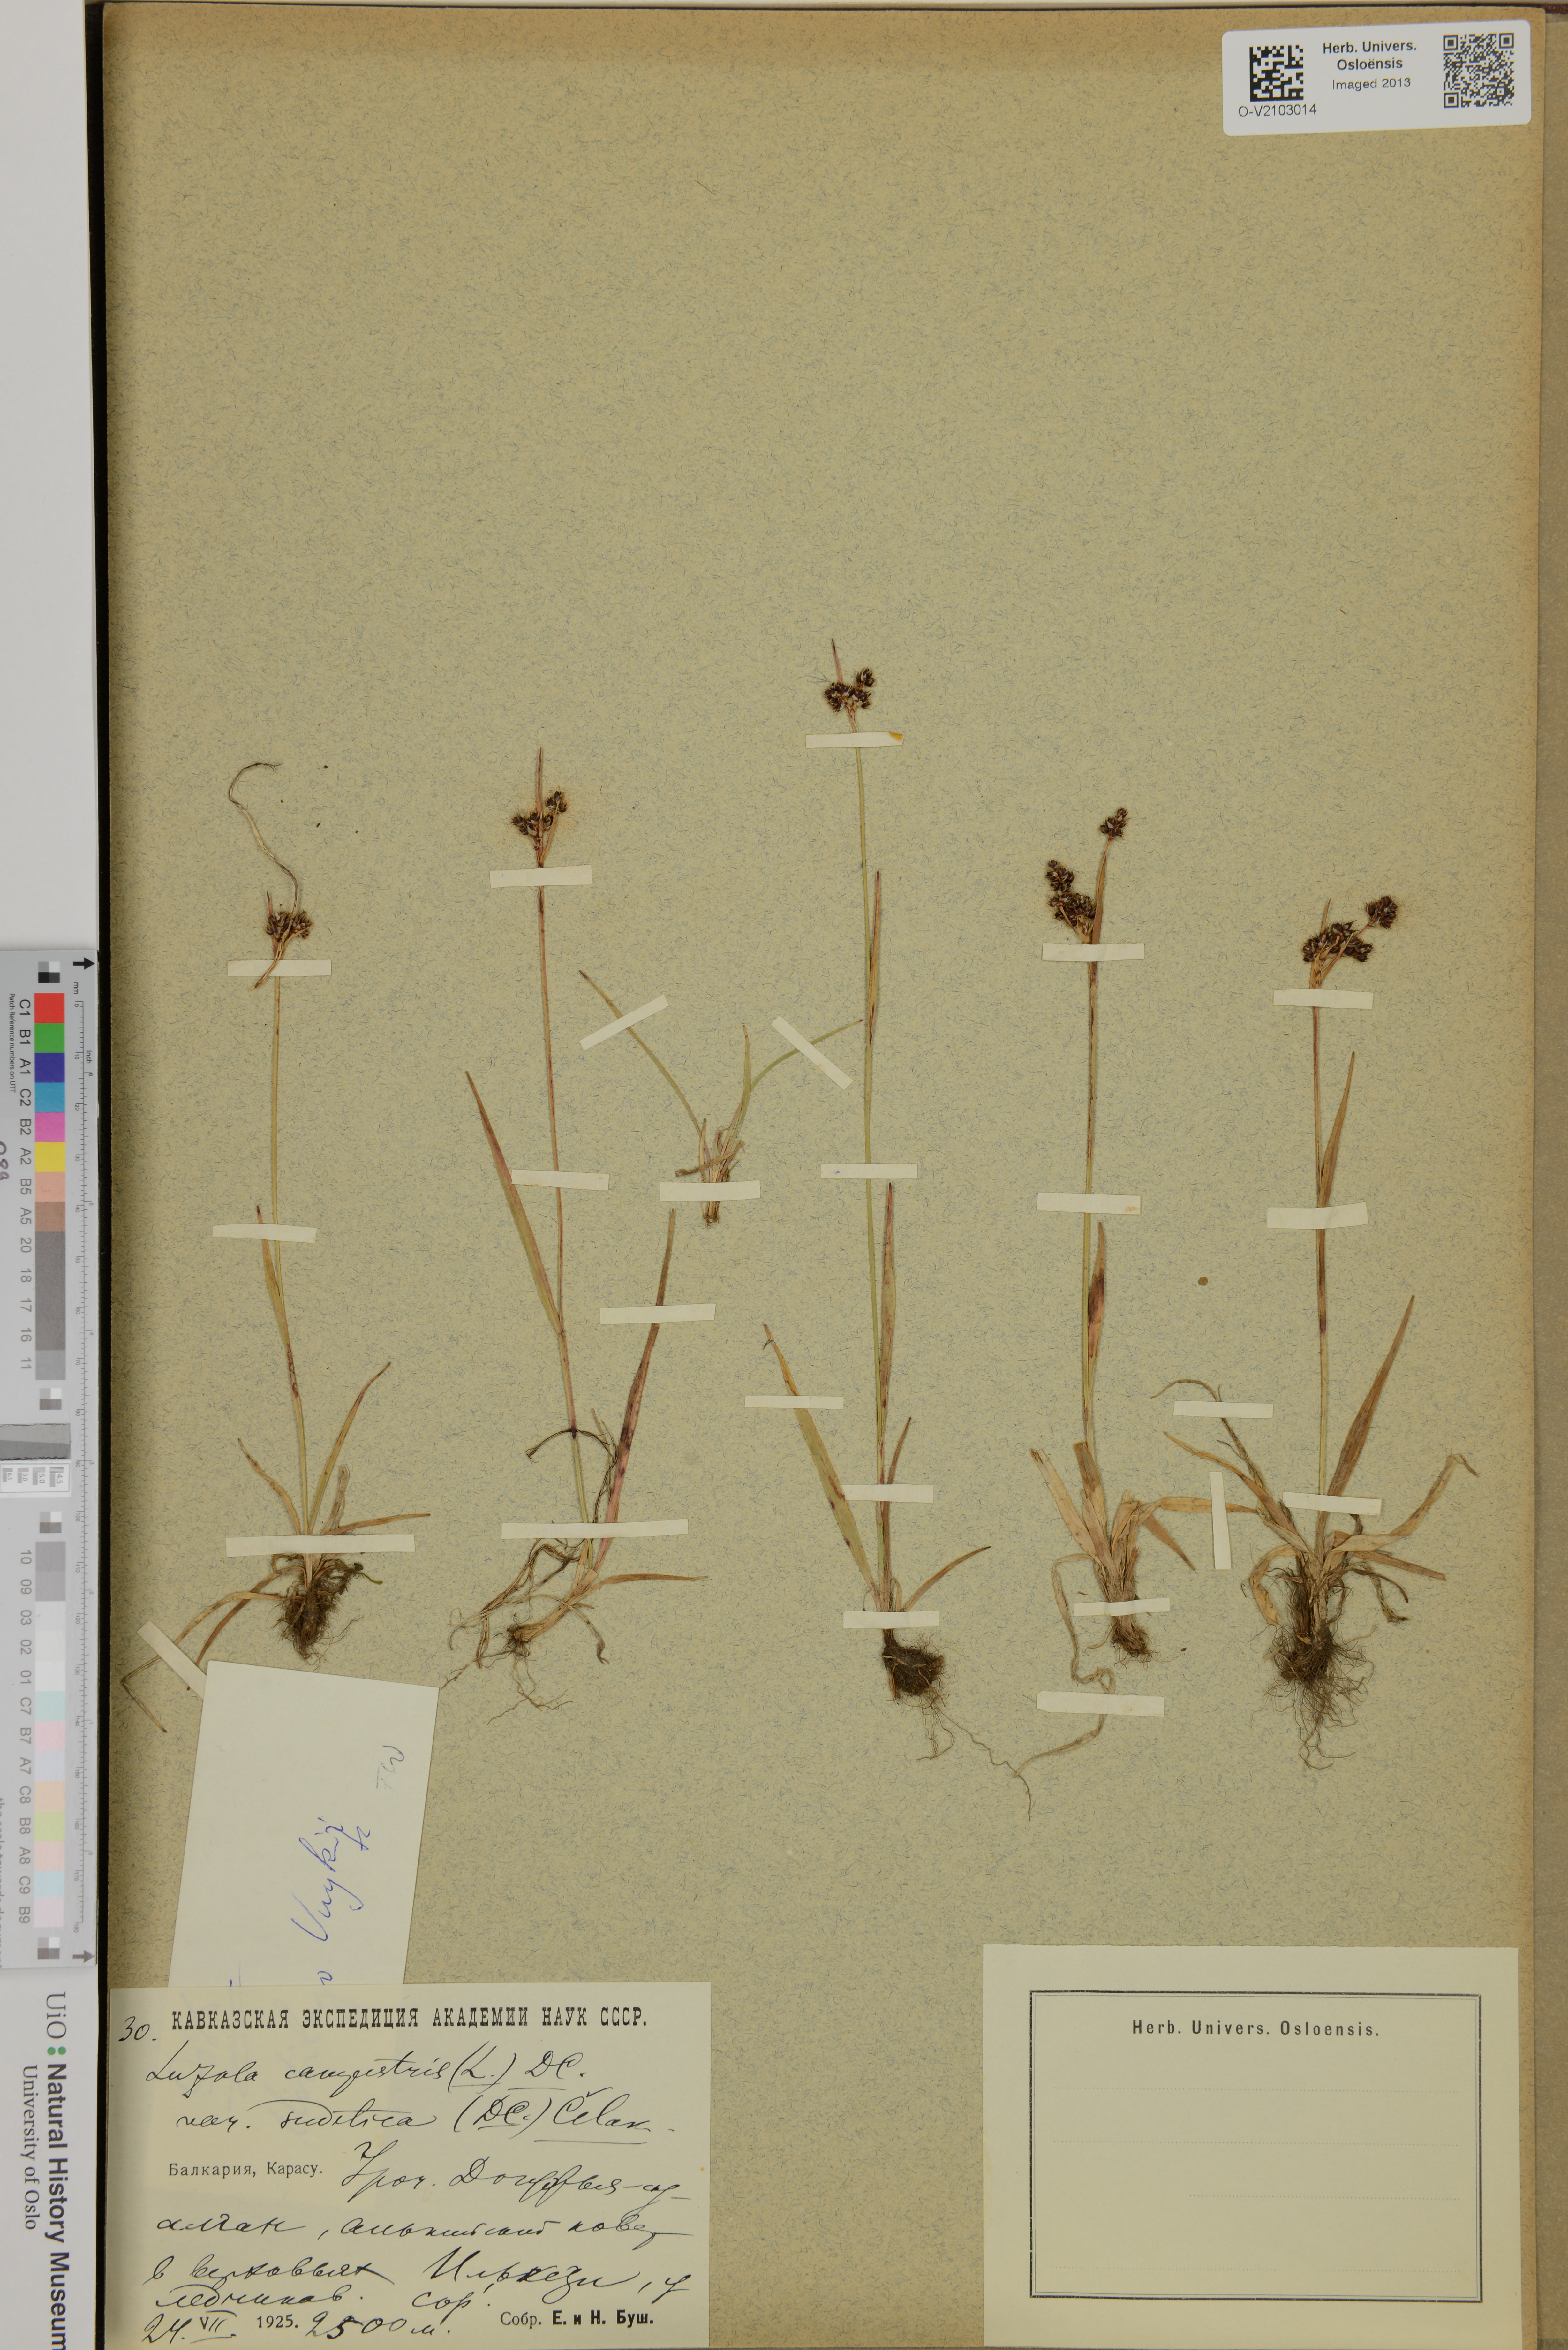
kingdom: Plantae
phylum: Tracheophyta
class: Liliopsida
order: Poales
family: Juncaceae
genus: Luzula
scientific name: Luzula campestris
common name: Field wood-rush
